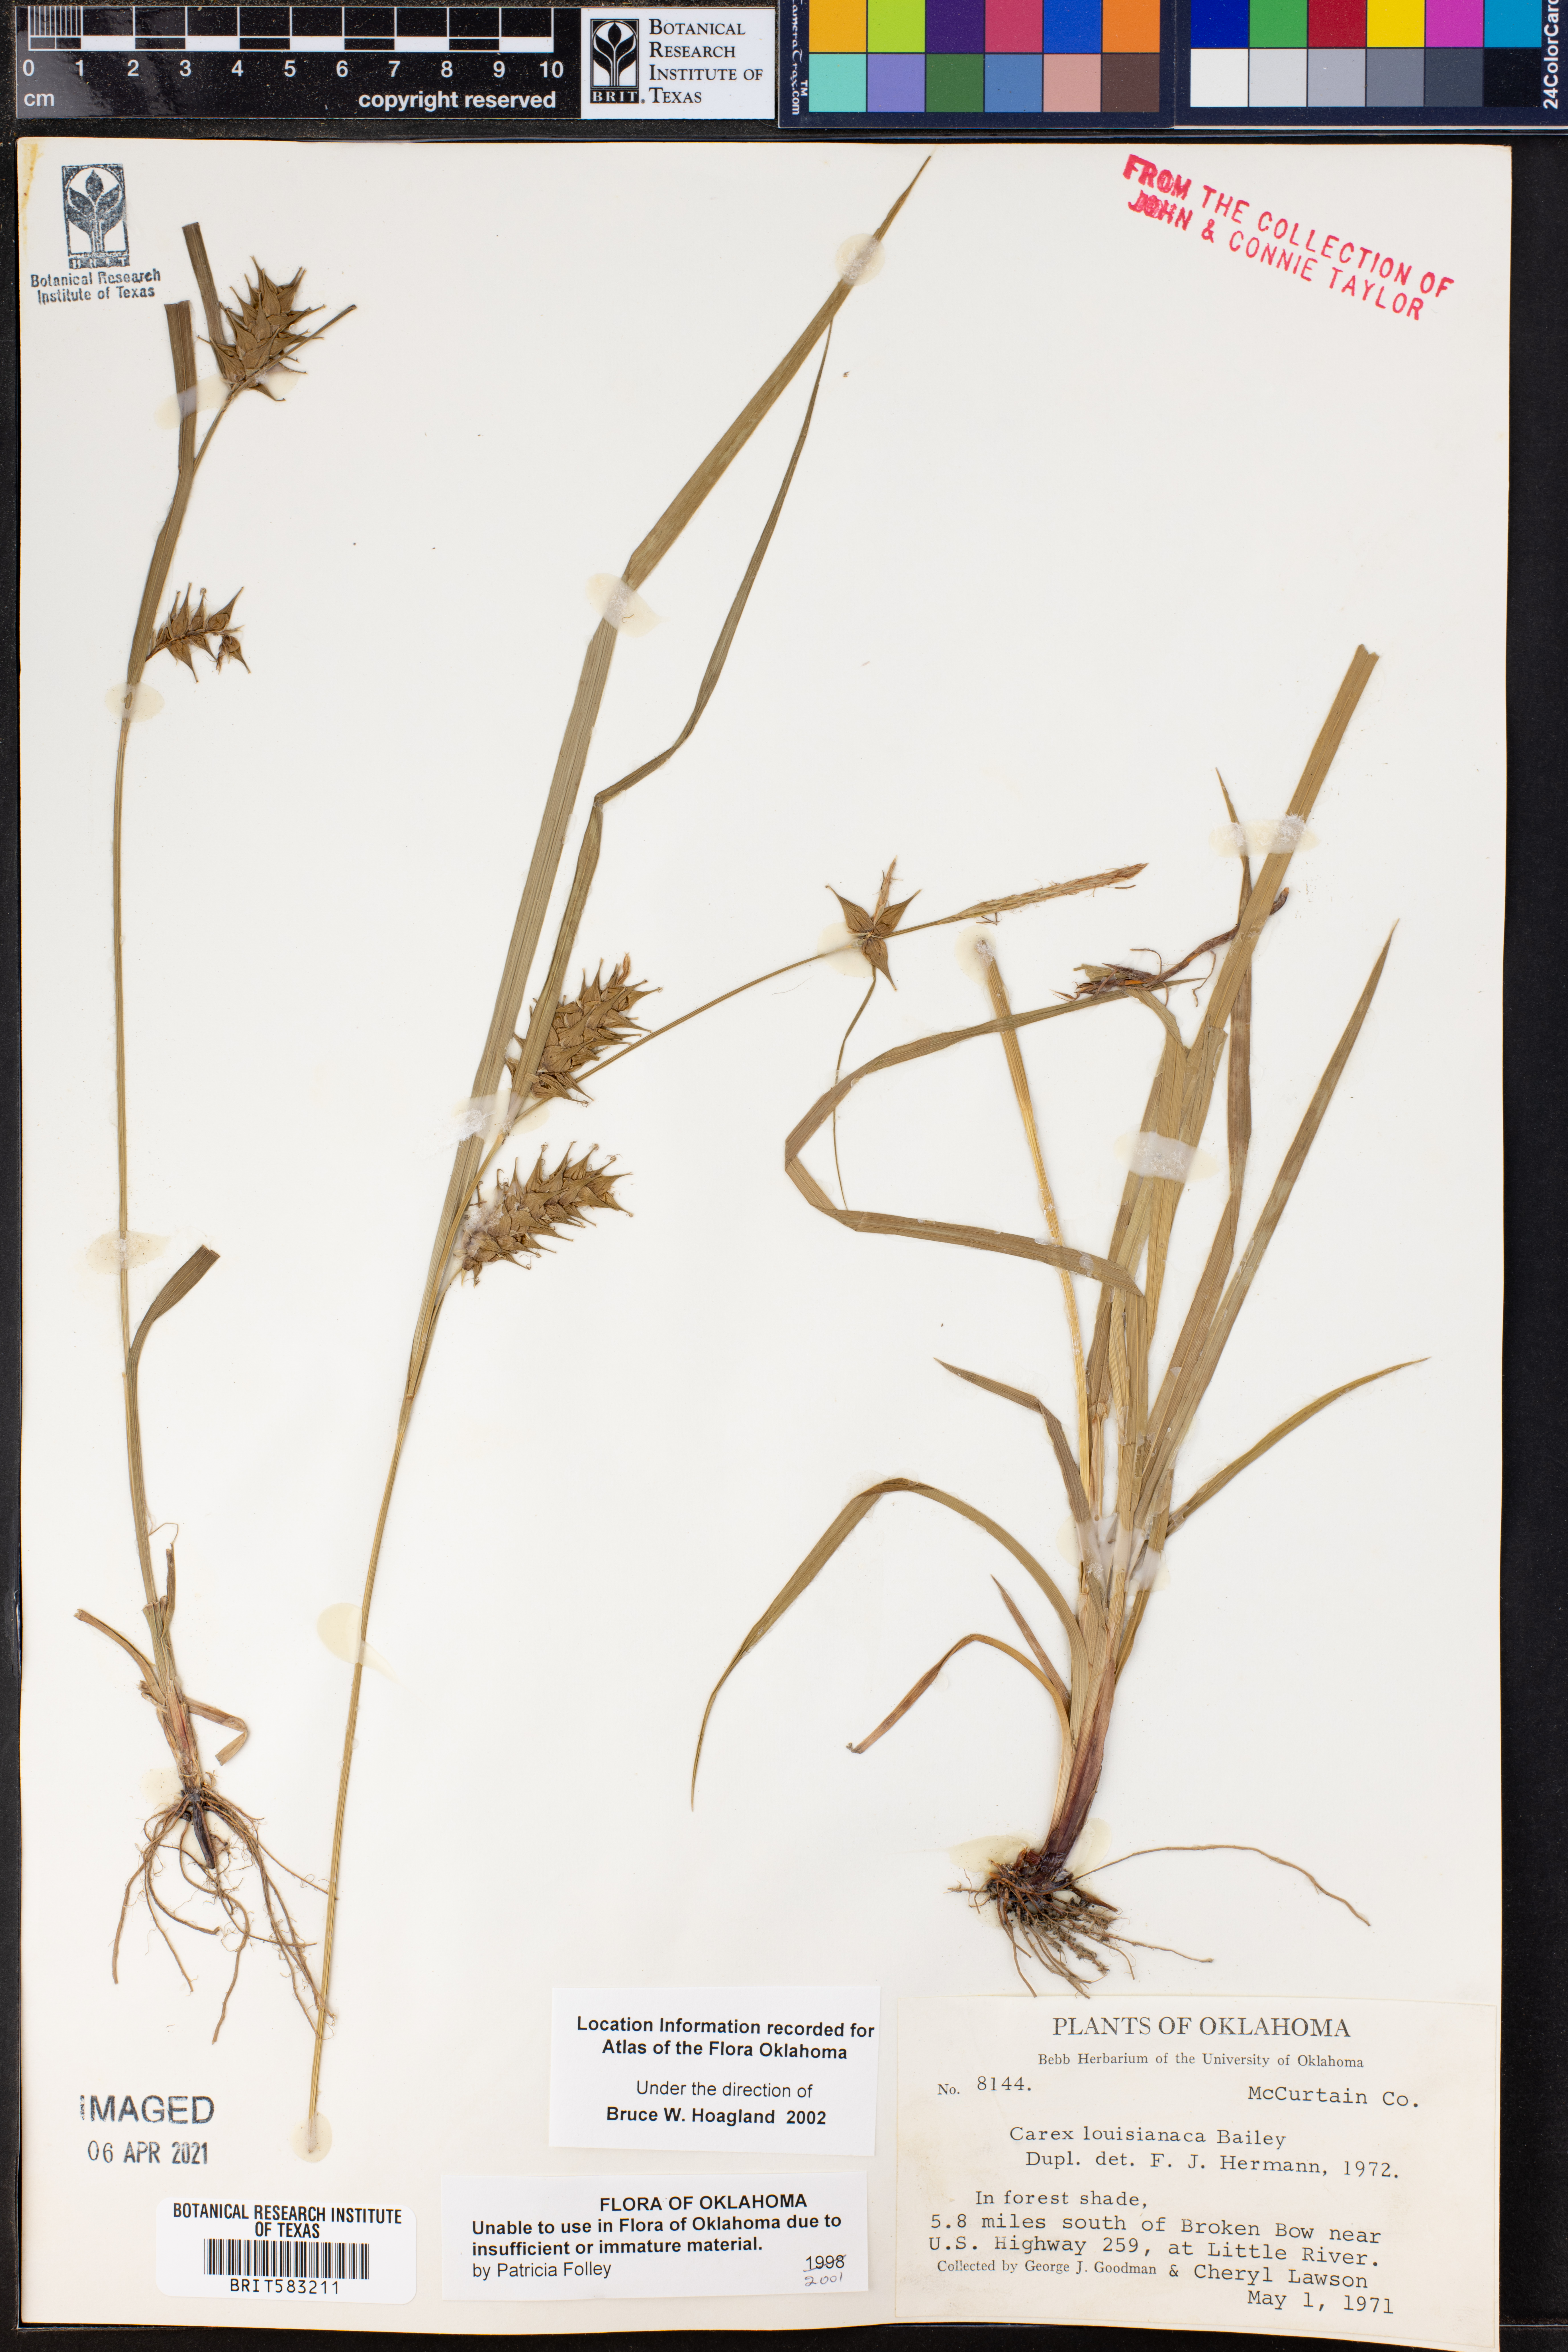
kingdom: Plantae
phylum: Tracheophyta
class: Liliopsida
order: Poales
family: Cyperaceae
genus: Carex
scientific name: Carex louisianica
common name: Louisiana sedge
